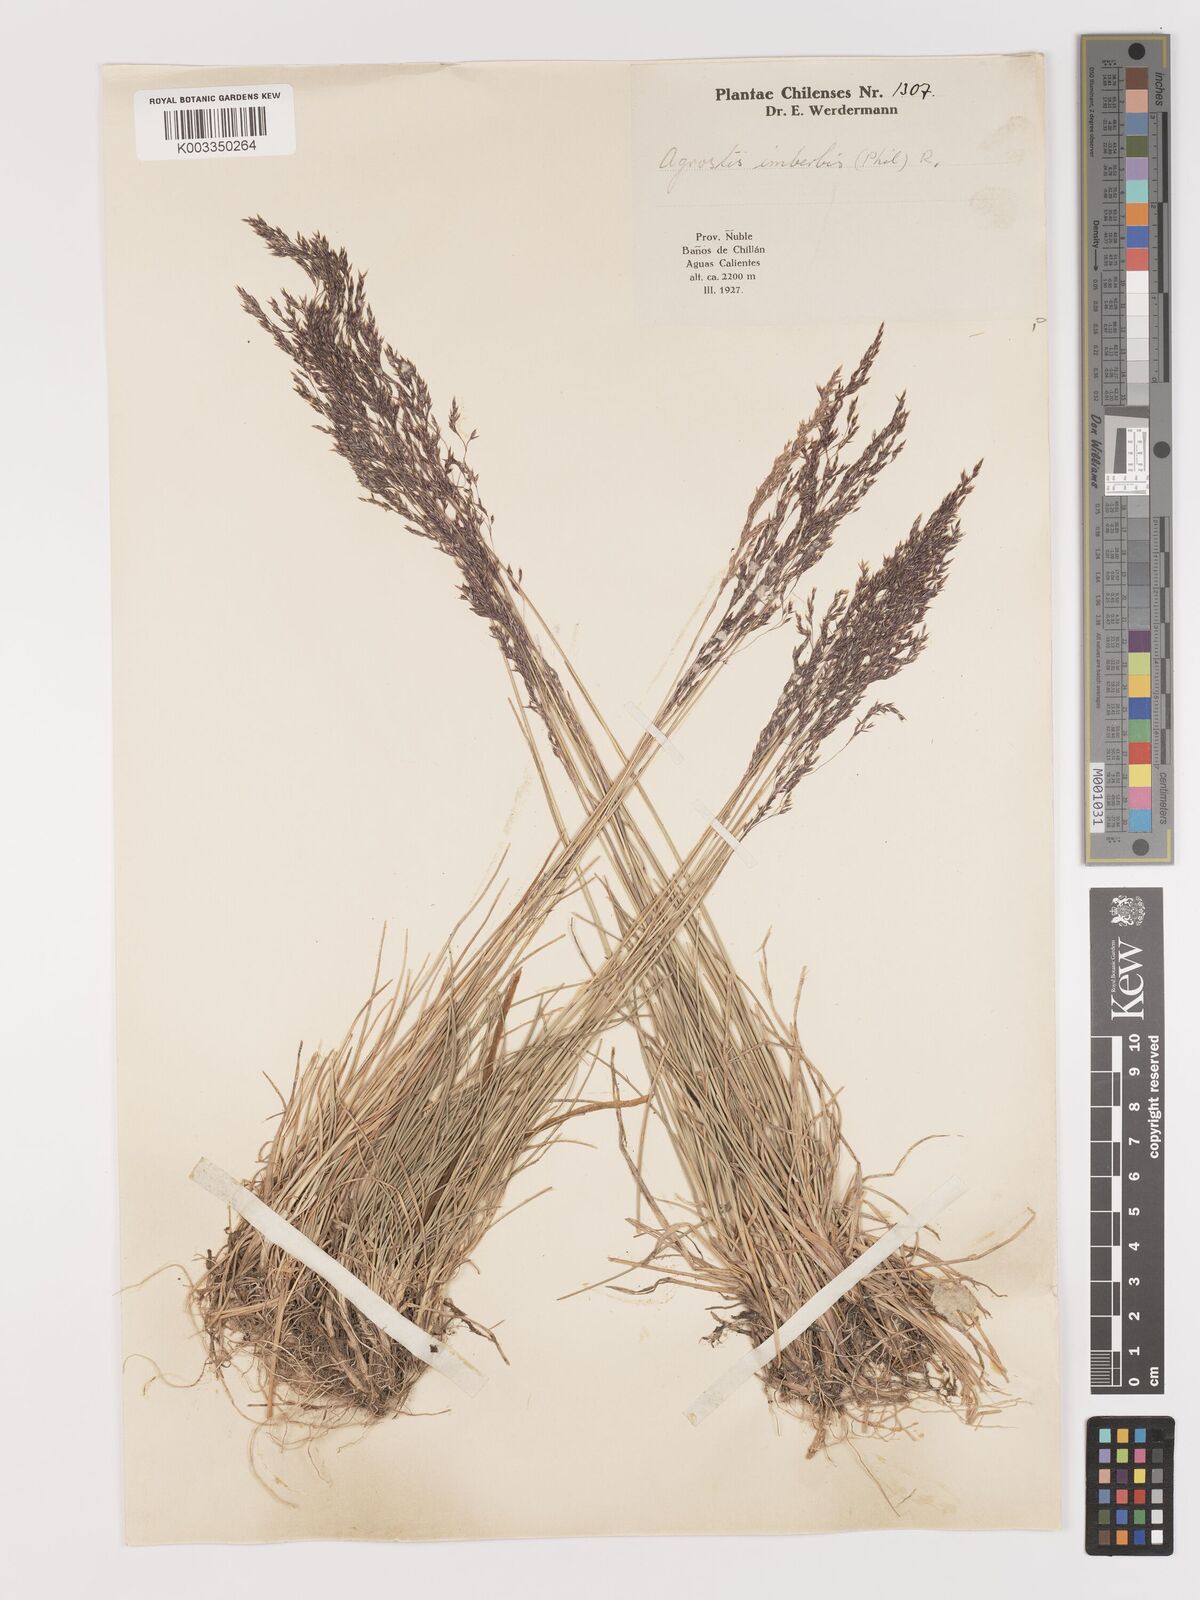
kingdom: Plantae
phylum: Tracheophyta
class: Liliopsida
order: Poales
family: Poaceae
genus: Agrostis
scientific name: Agrostis imberbis
